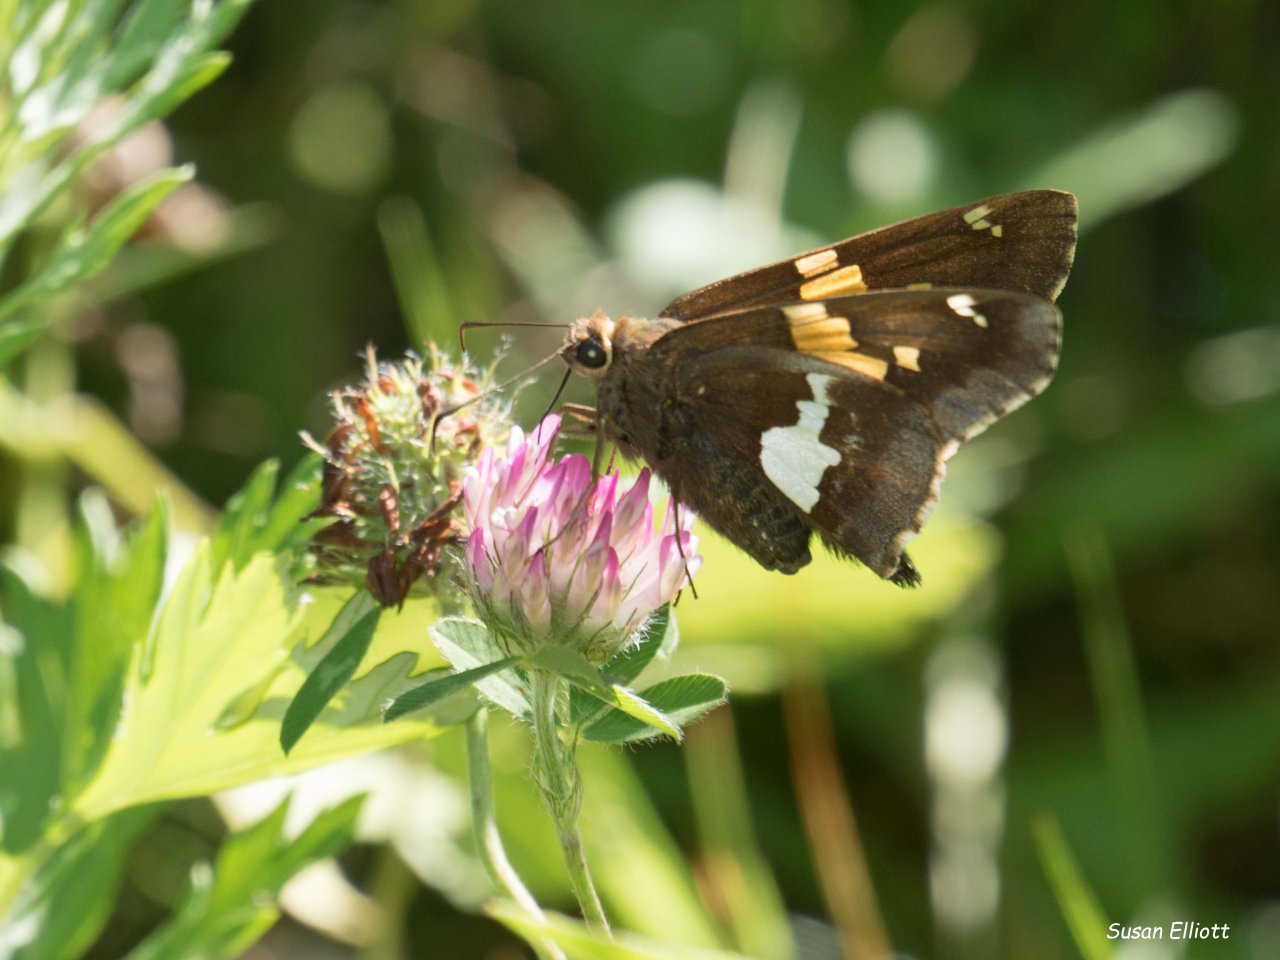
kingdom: Animalia
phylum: Arthropoda
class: Insecta
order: Lepidoptera
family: Hesperiidae
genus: Epargyreus
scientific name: Epargyreus clarus
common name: Silver-spotted Skipper
